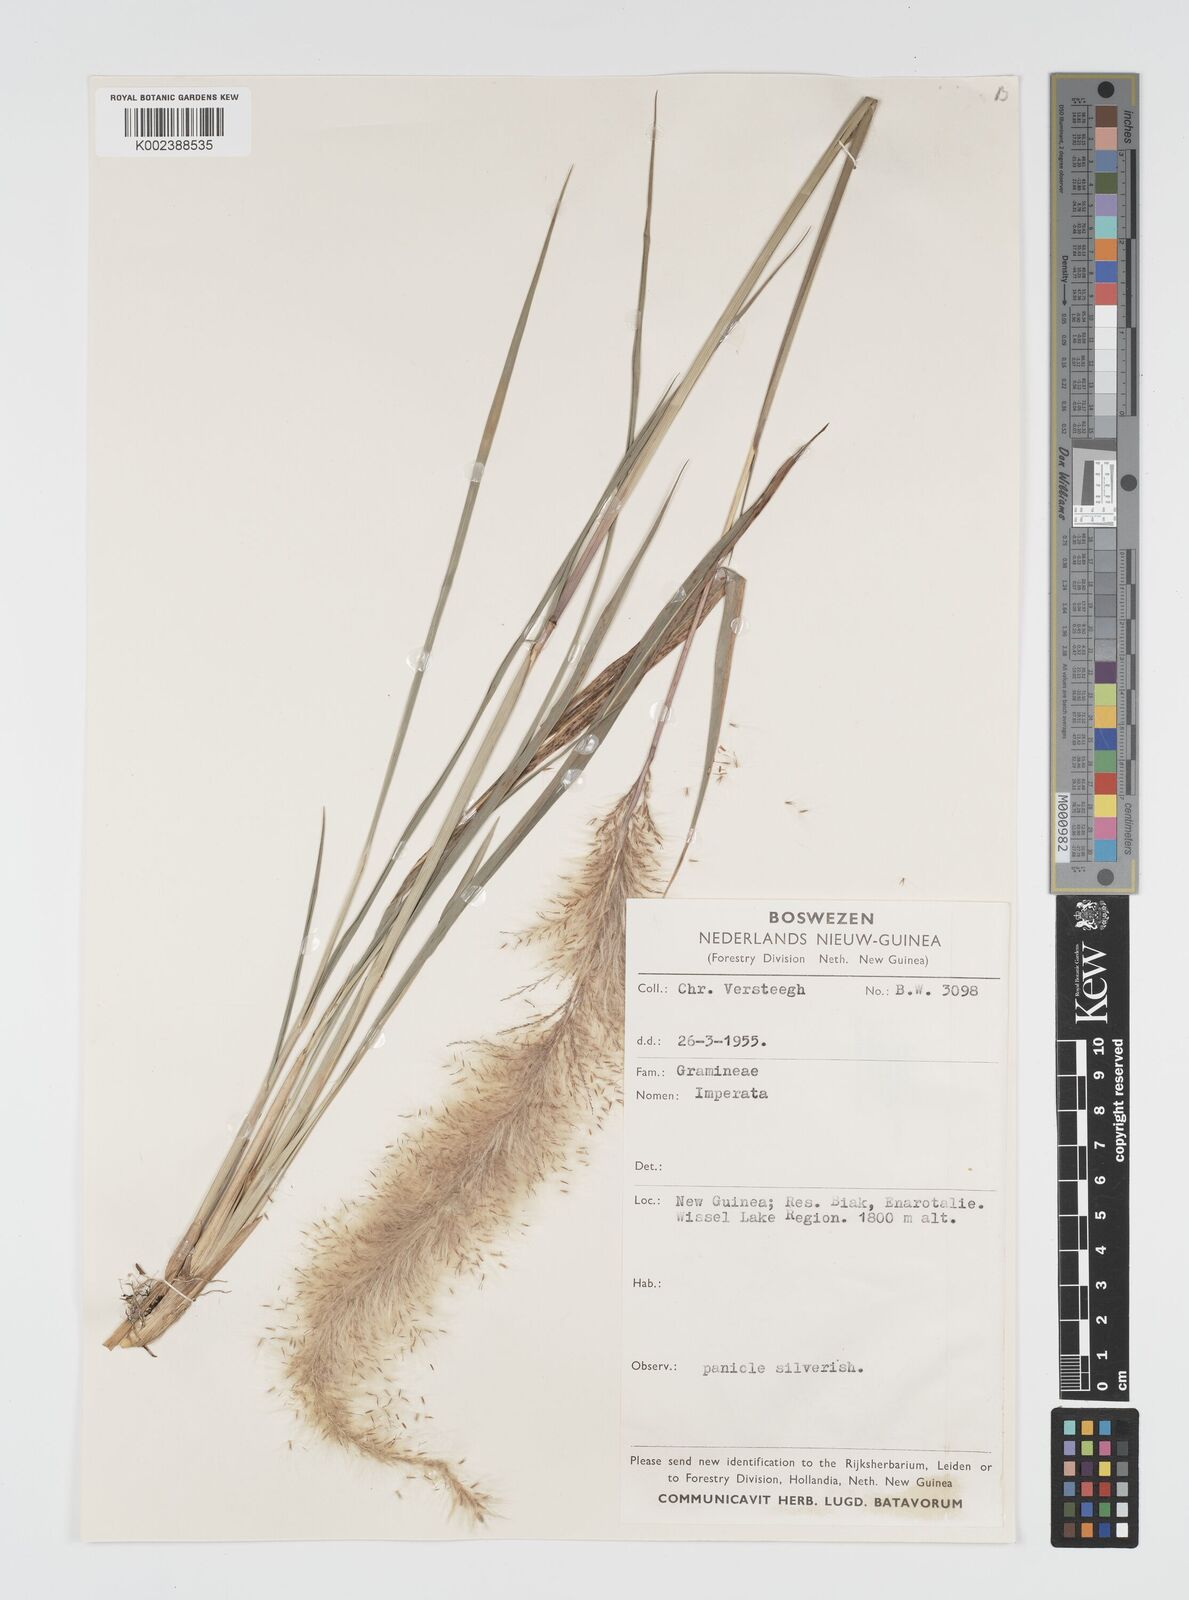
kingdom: Plantae
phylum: Tracheophyta
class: Liliopsida
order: Poales
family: Poaceae
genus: Imperata
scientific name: Imperata conferta
